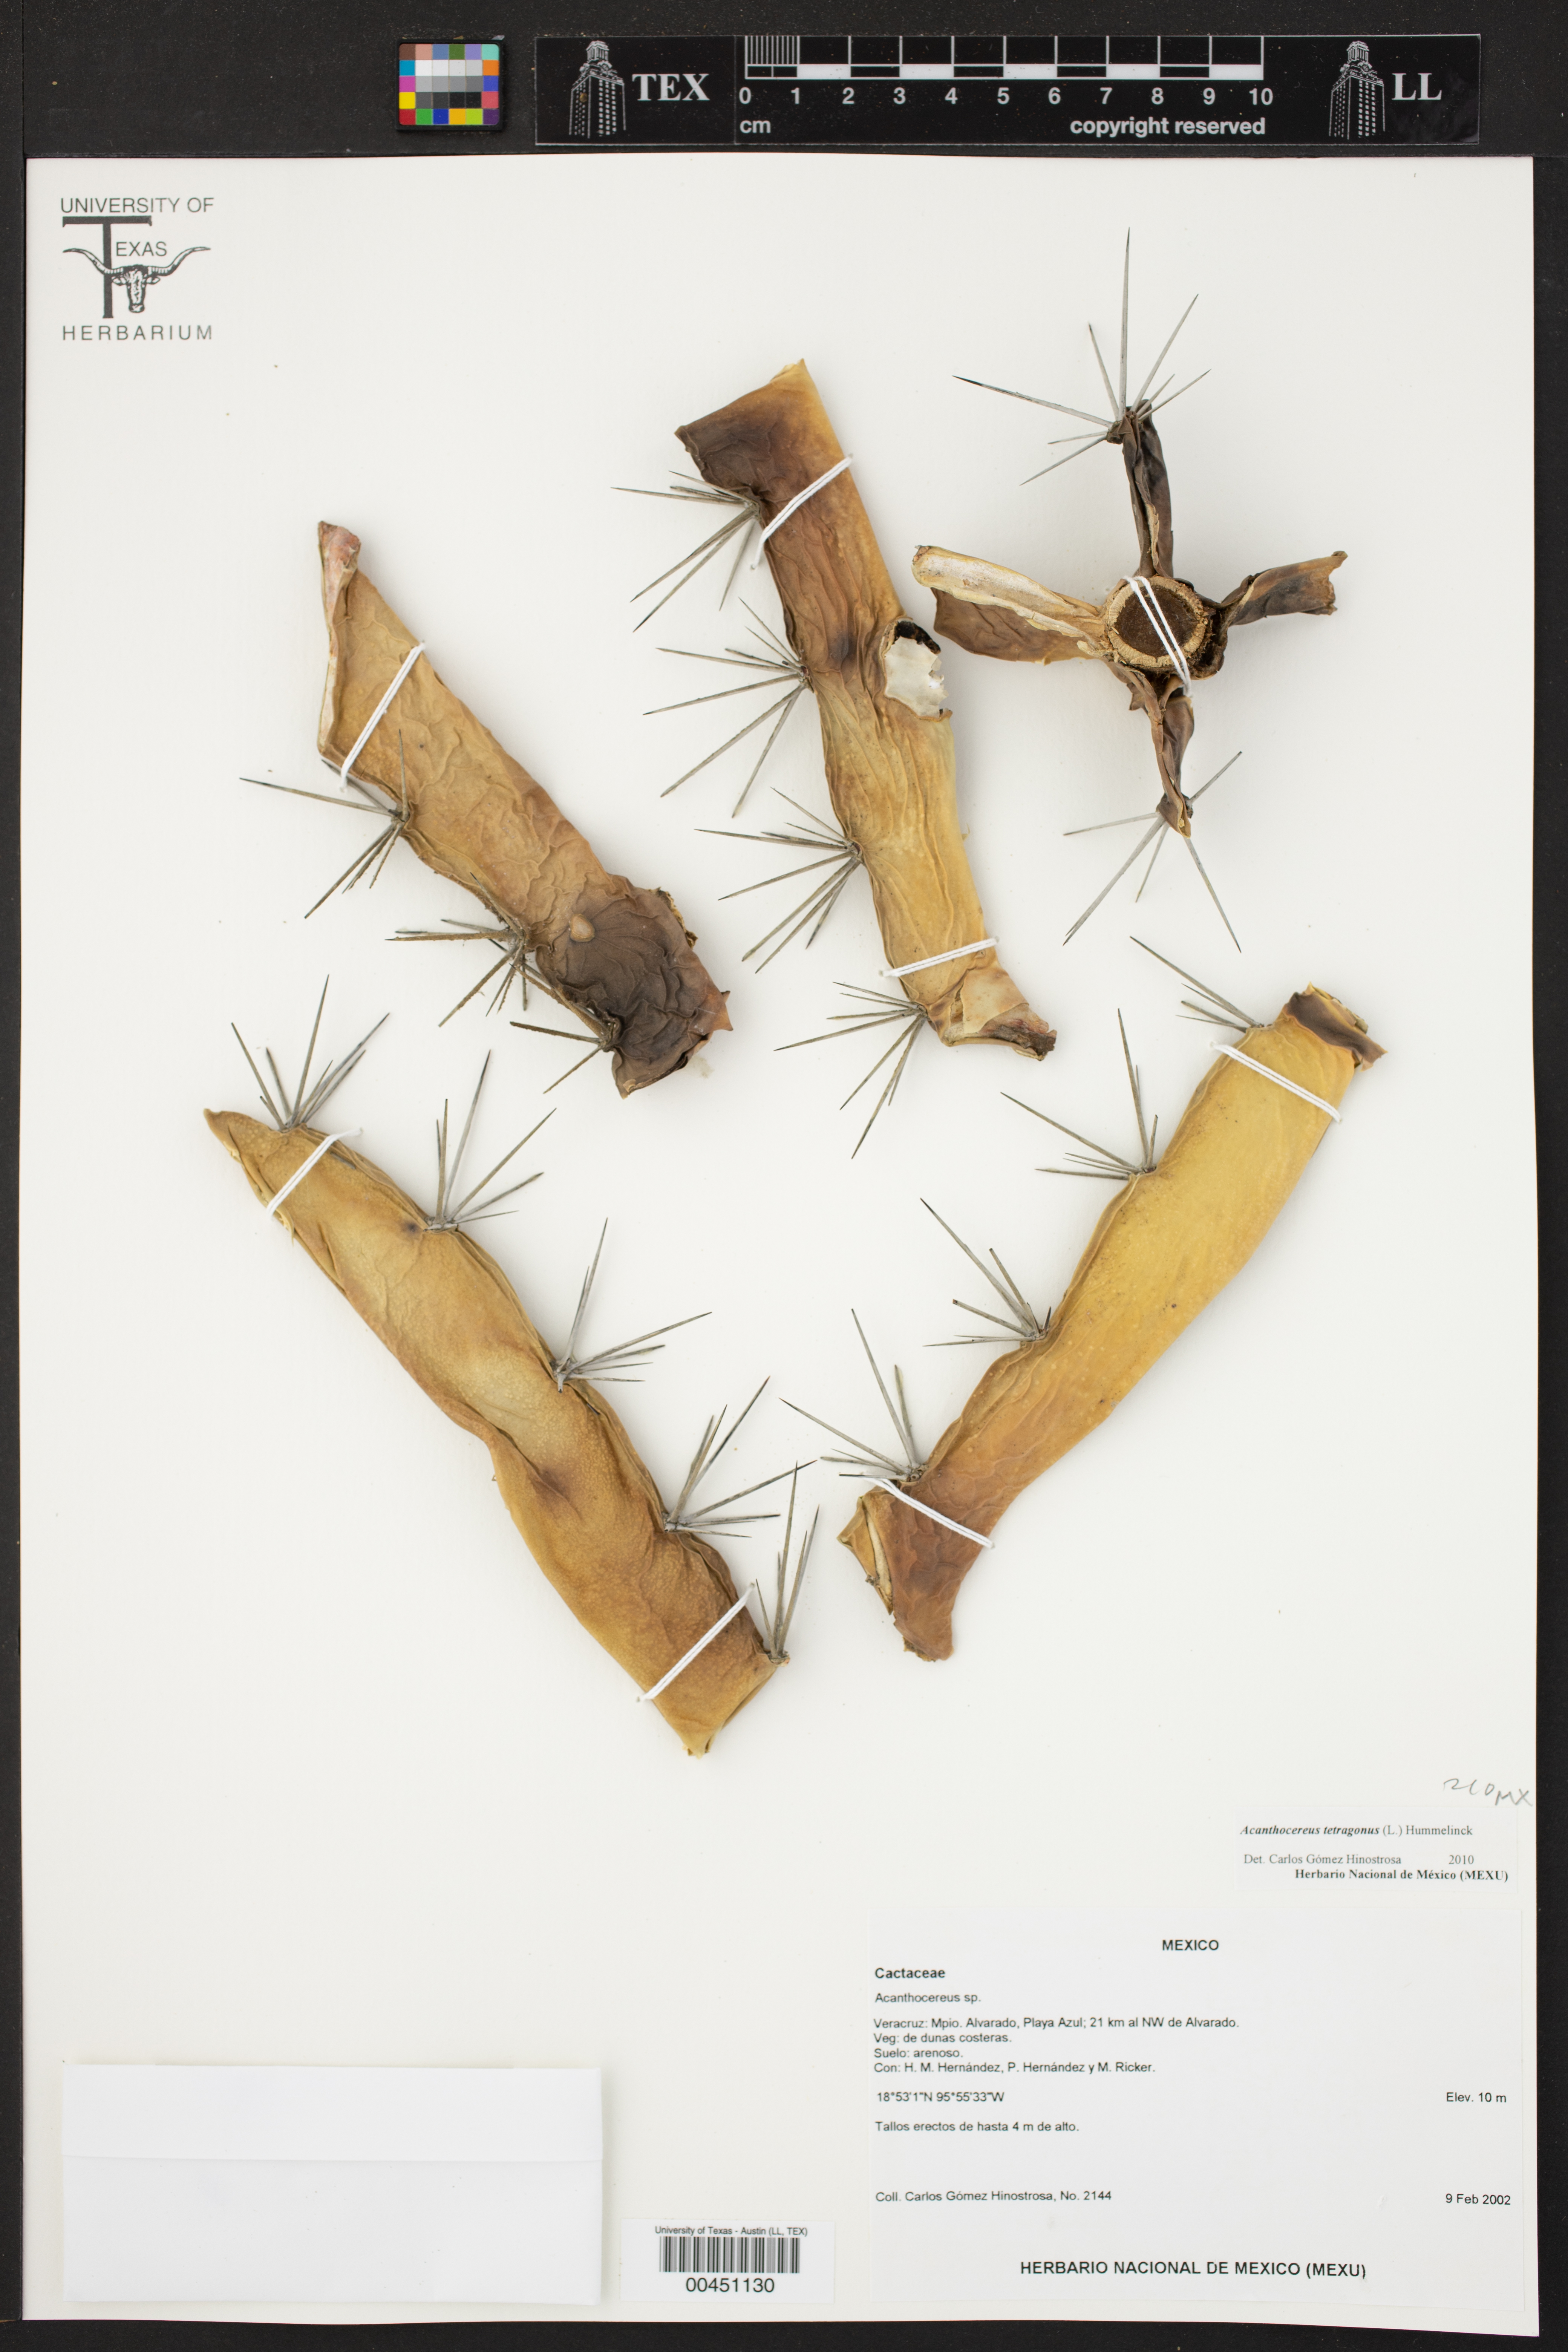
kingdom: Plantae
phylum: Tracheophyta
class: Magnoliopsida
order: Caryophyllales
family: Cactaceae
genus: Acanthocereus
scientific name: Acanthocereus tetragonus
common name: Triangle cactus
